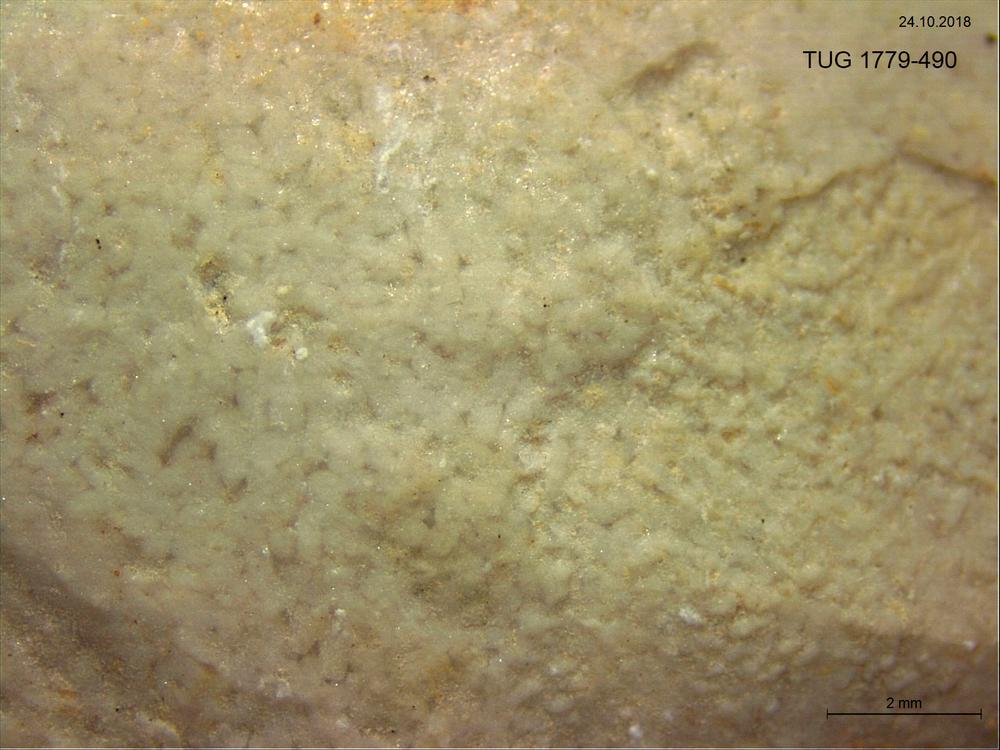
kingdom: Animalia
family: Coprulidae
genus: Coprulus
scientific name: Coprulus
